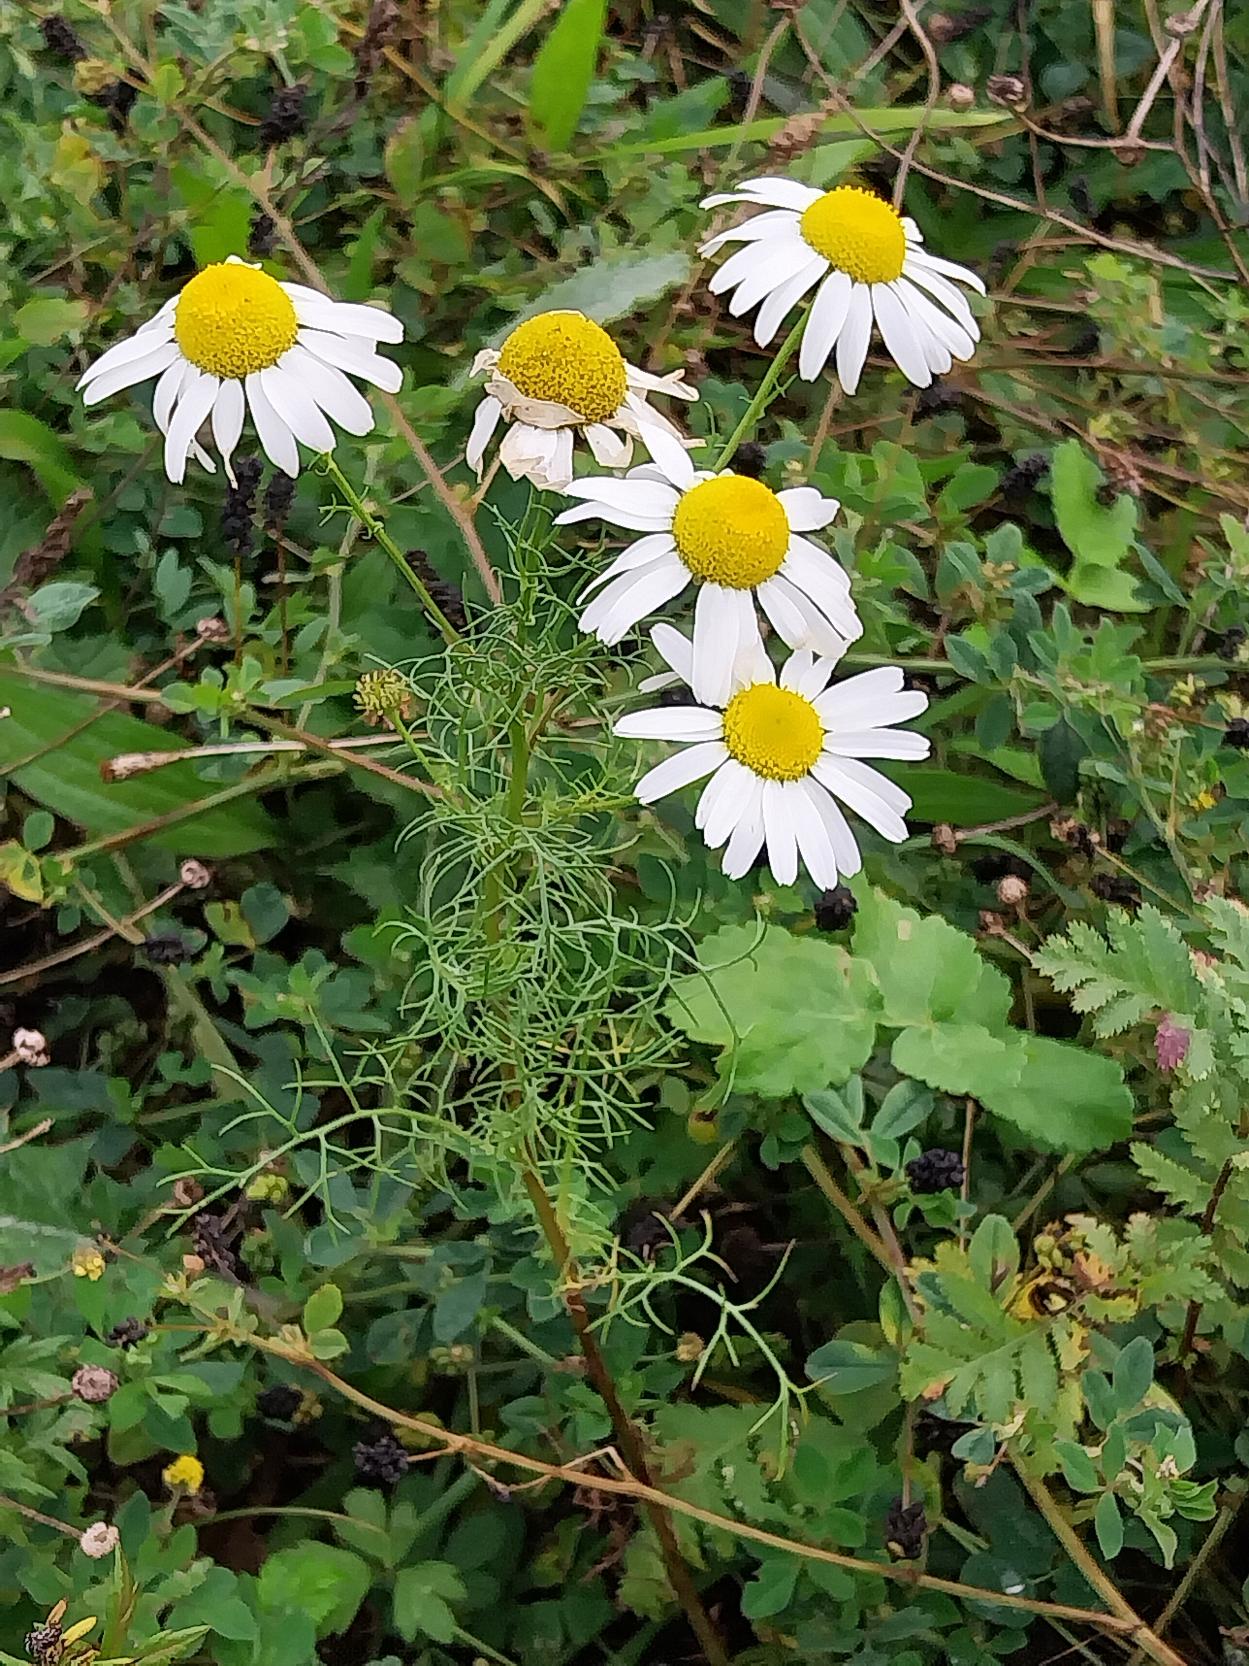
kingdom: Plantae
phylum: Tracheophyta
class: Magnoliopsida
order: Asterales
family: Asteraceae
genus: Tripleurospermum
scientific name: Tripleurospermum inodorum
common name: Lugtløs kamille
